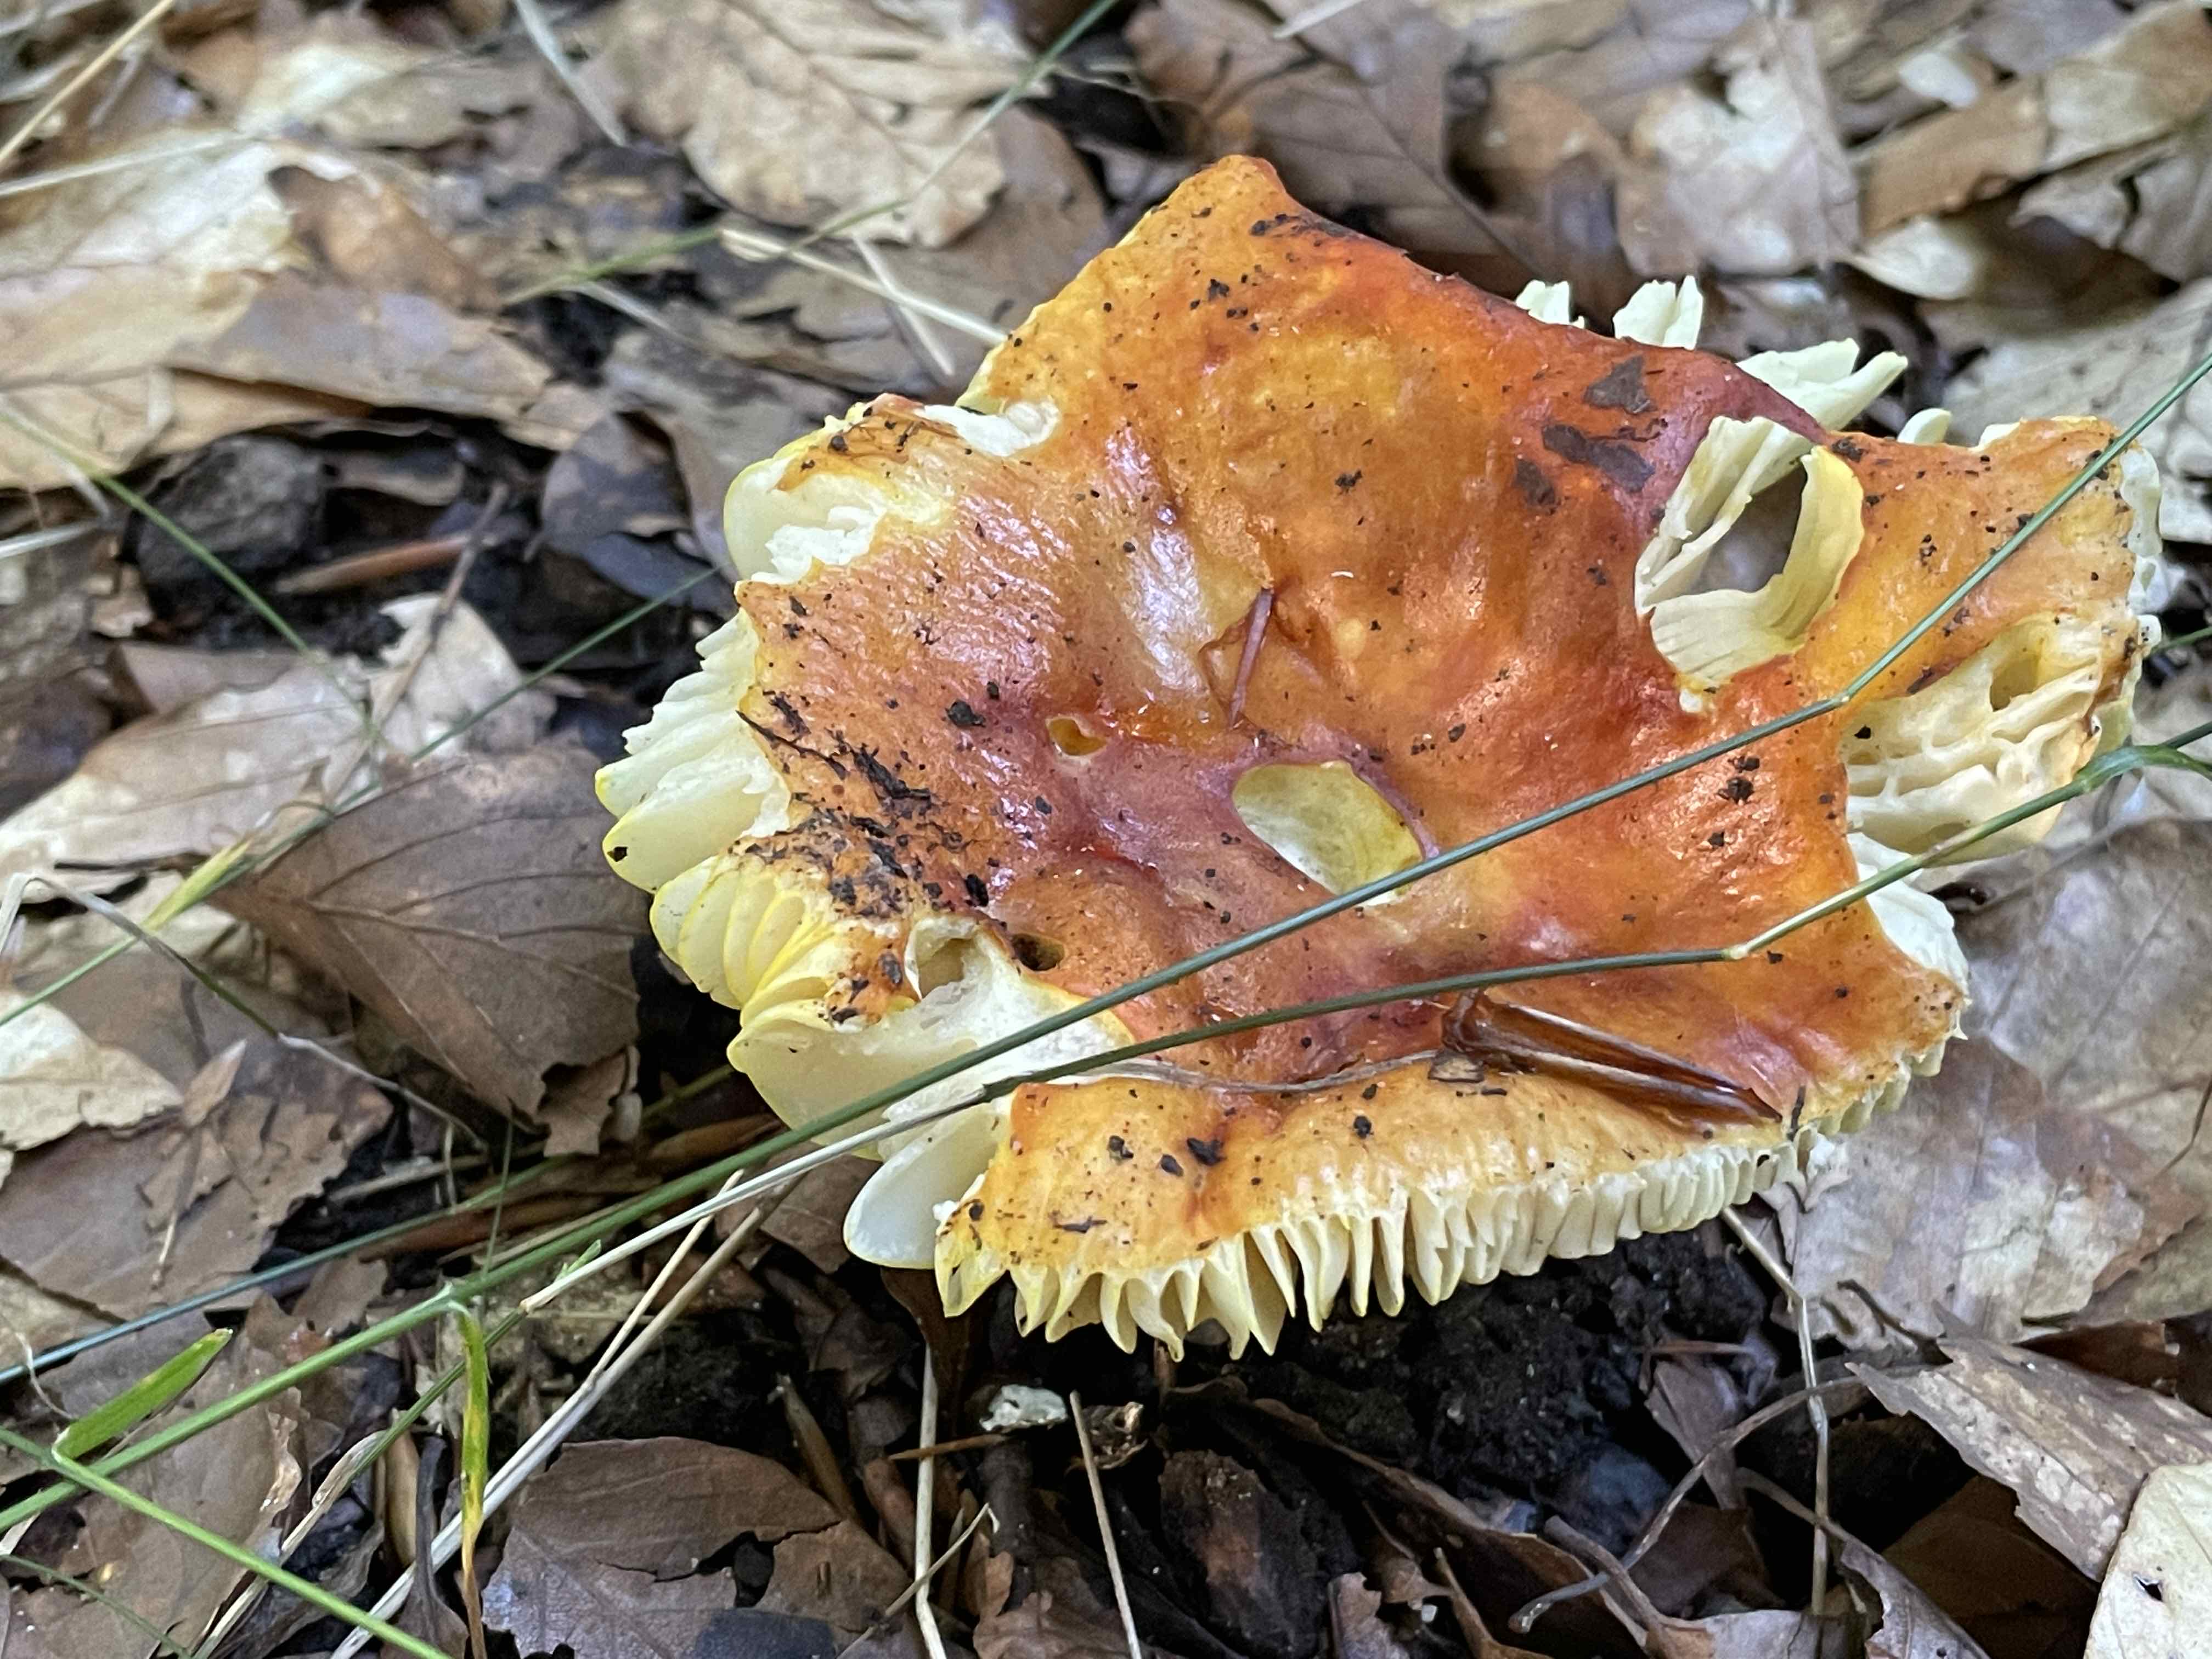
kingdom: Fungi
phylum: Basidiomycota
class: Agaricomycetes
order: Russulales
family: Russulaceae
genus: Russula
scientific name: Russula aurea
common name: gylden skørhat
